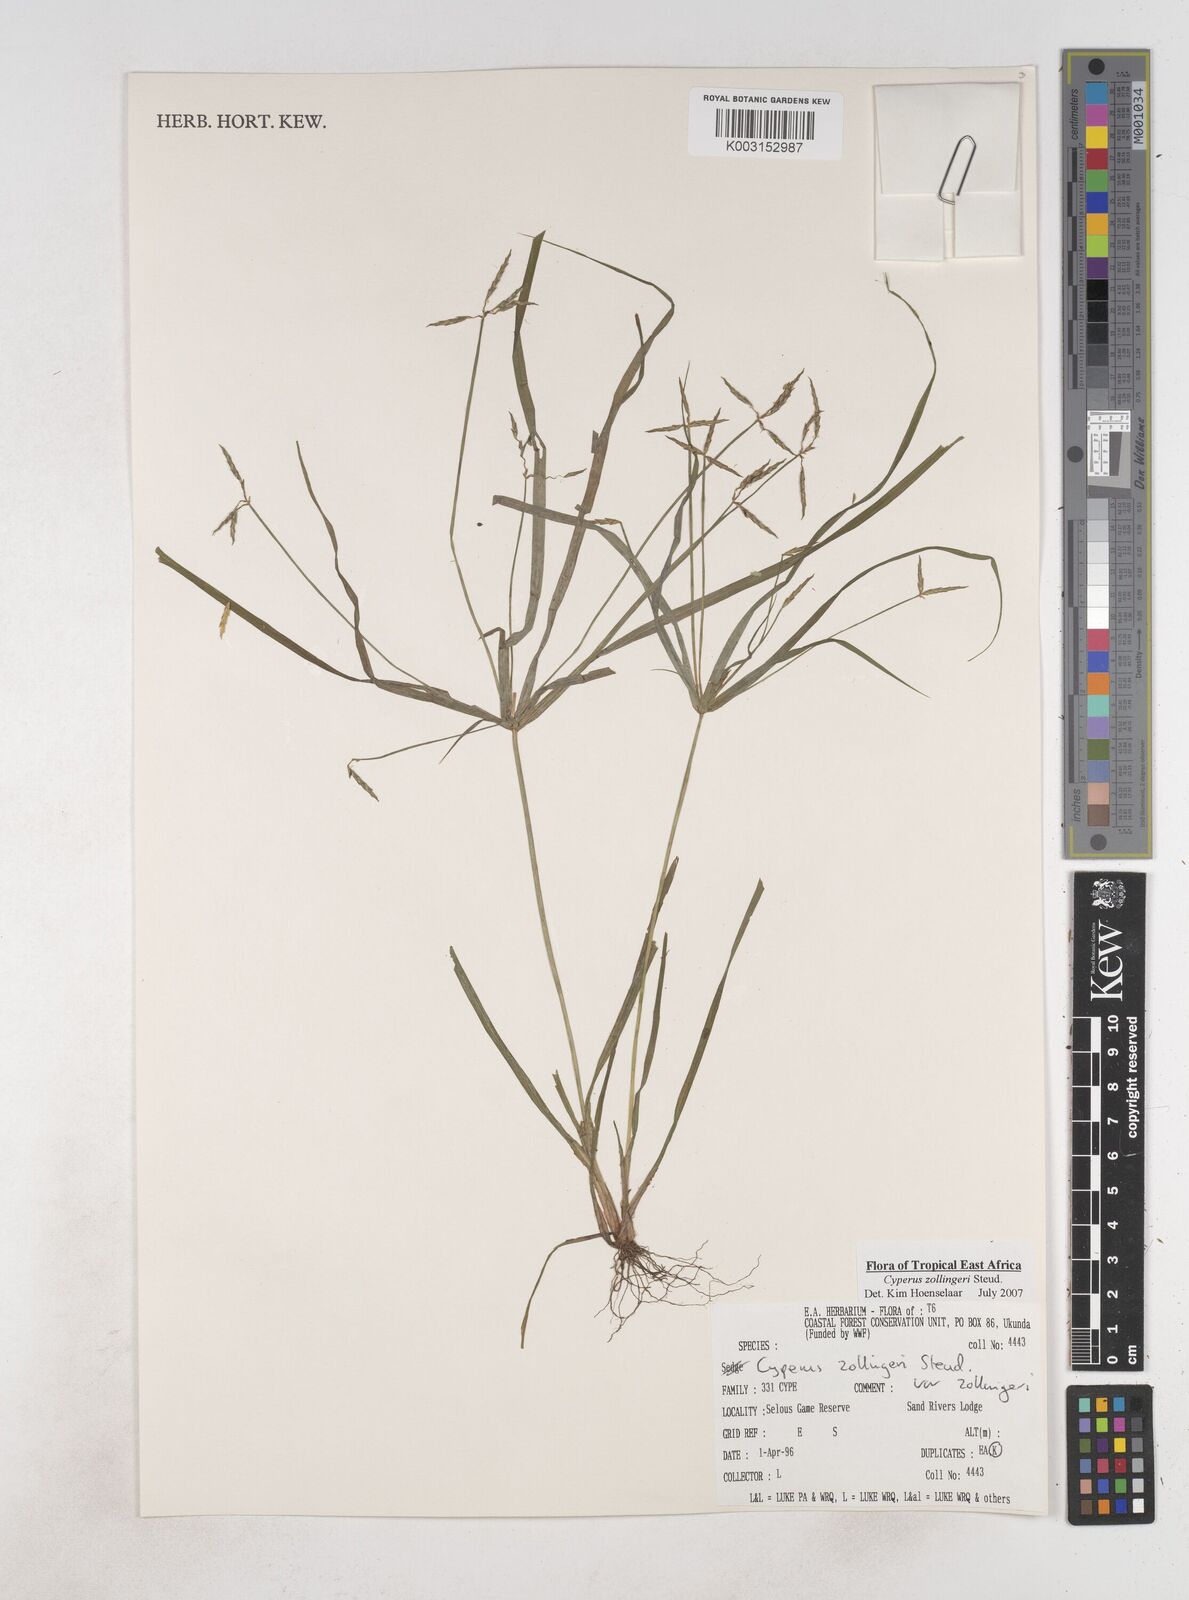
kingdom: Plantae
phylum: Tracheophyta
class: Liliopsida
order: Poales
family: Cyperaceae
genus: Cyperus
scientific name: Cyperus zollingeri
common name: Roadside flatsedge
